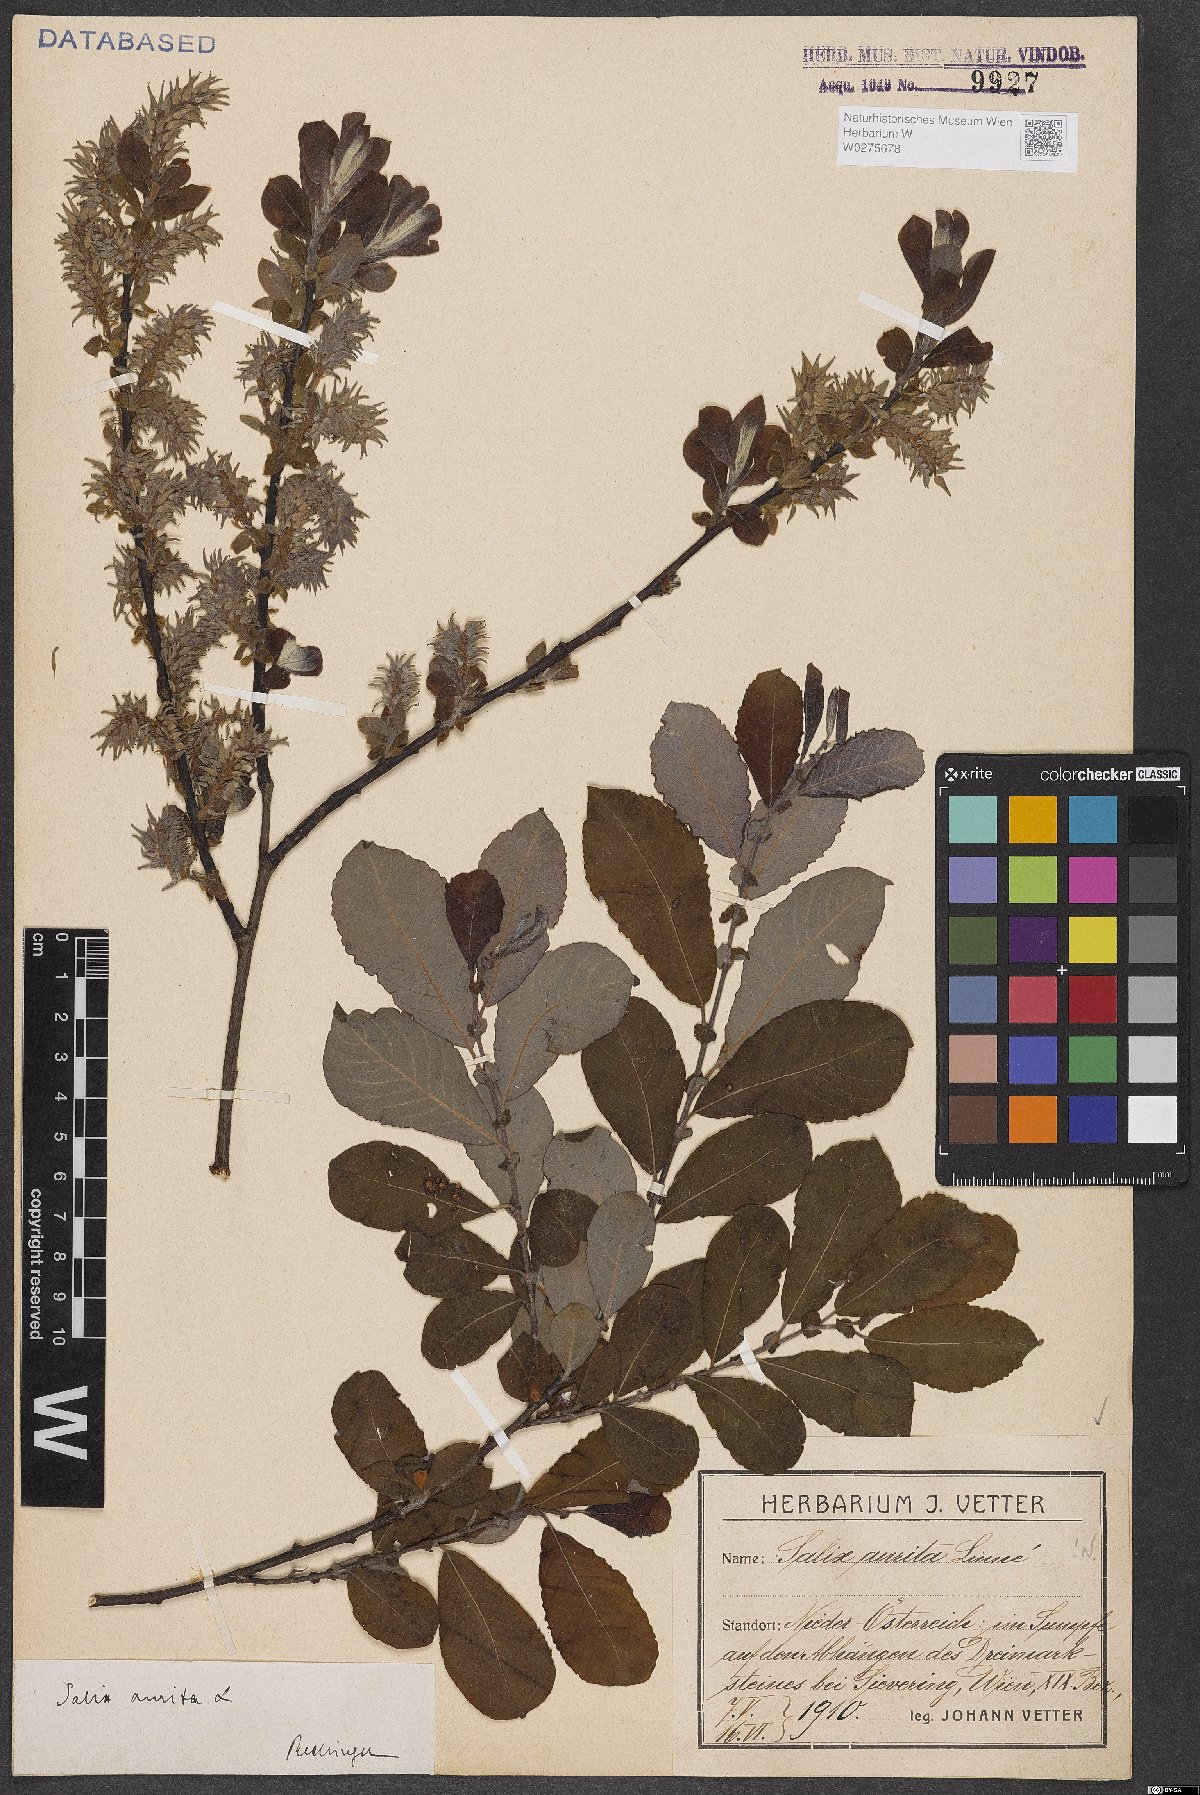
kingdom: Plantae
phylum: Tracheophyta
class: Magnoliopsida
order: Malpighiales
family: Salicaceae
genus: Salix
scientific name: Salix aurita
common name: Eared willow
